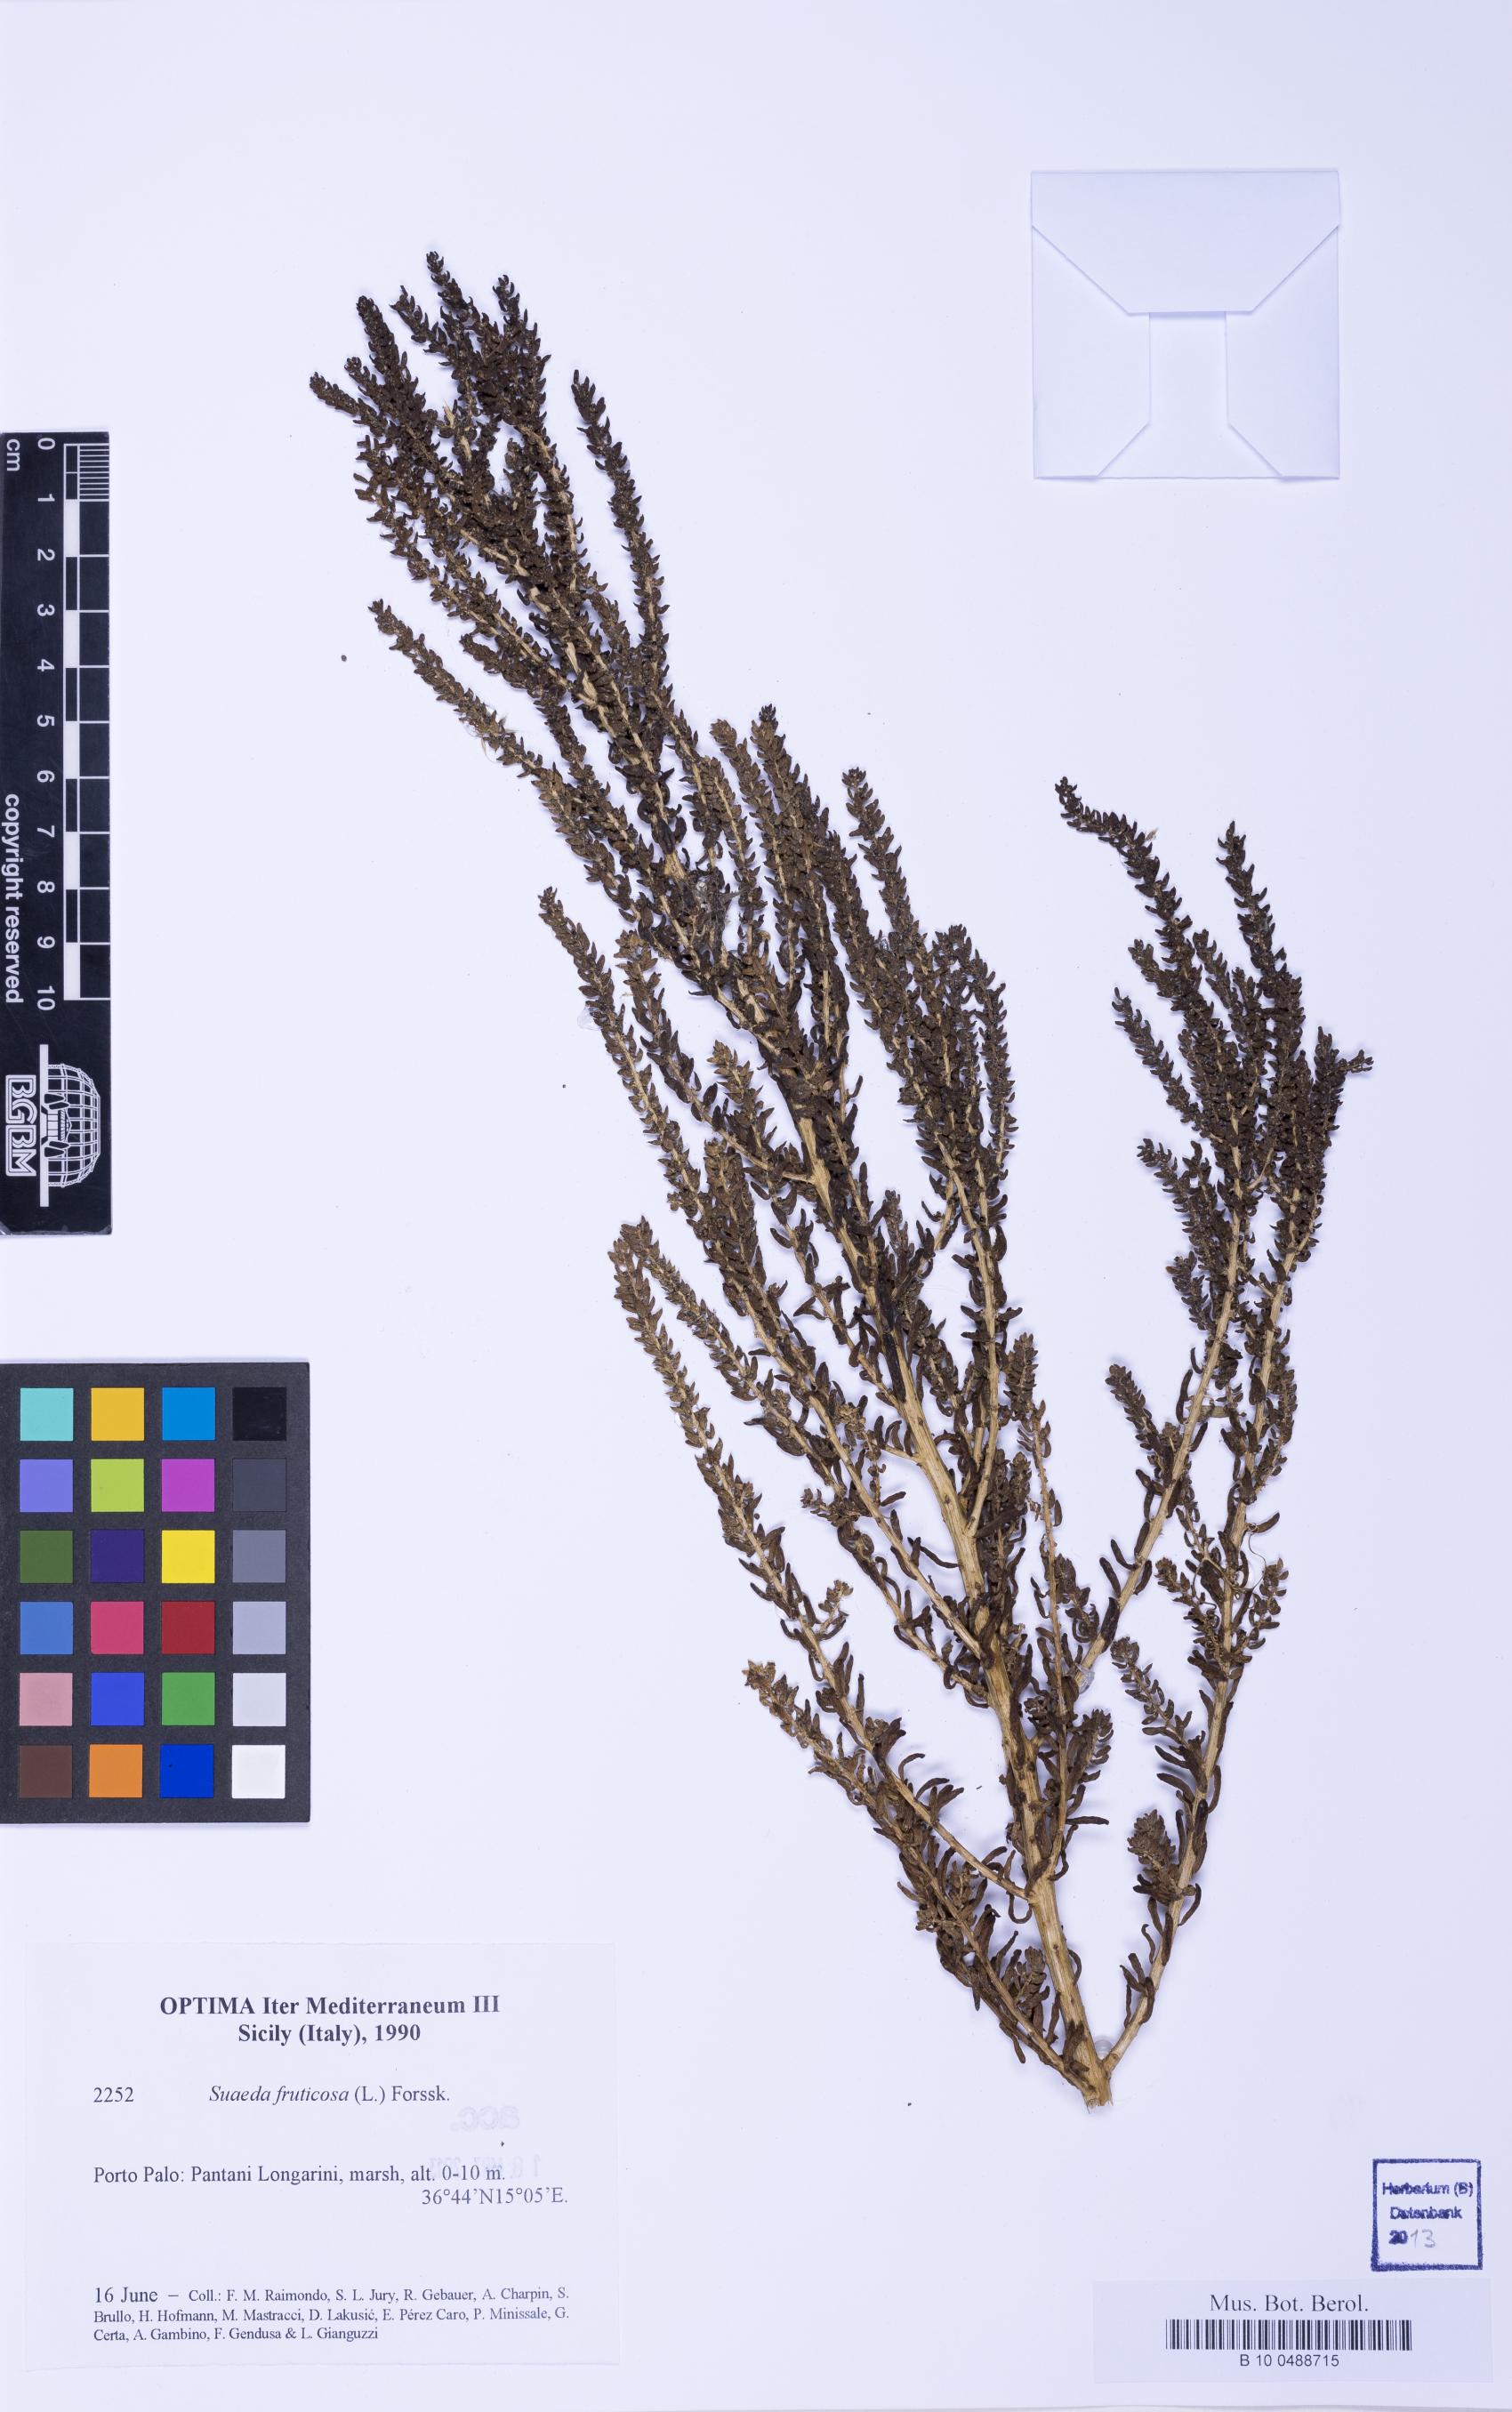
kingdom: Plantae
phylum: Tracheophyta
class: Magnoliopsida
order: Caryophyllales
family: Amaranthaceae
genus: Suaeda
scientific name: Suaeda vera
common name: Shrubby sea-blite
